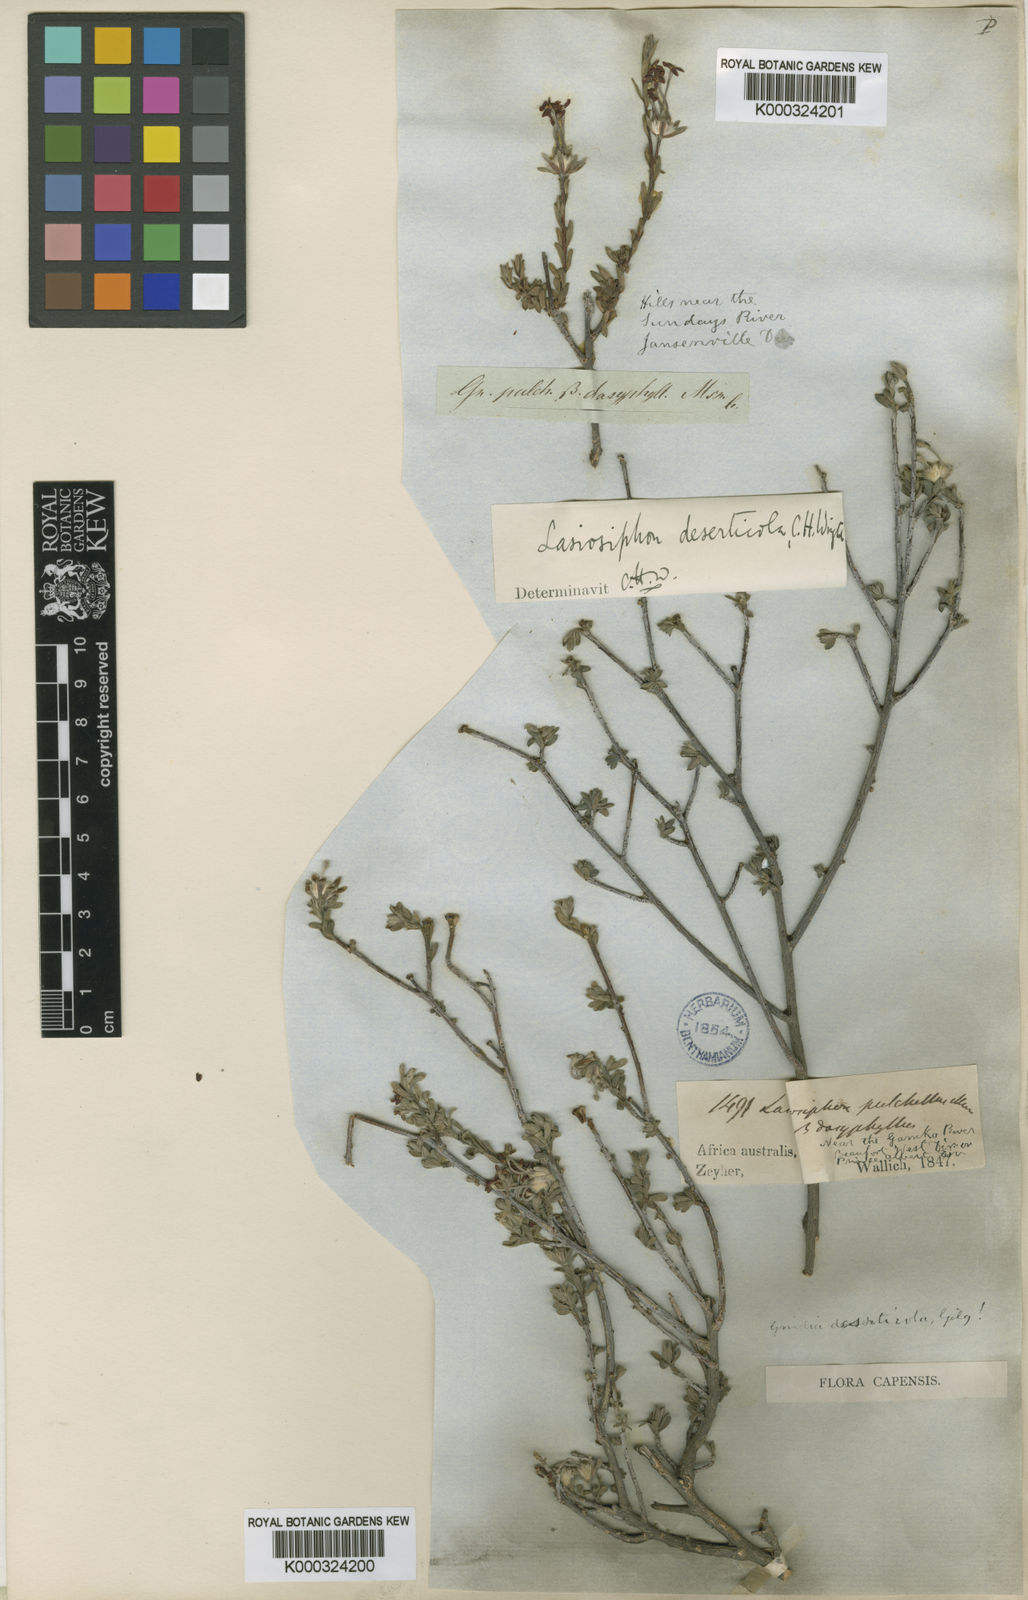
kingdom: Plantae
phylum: Tracheophyta
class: Magnoliopsida
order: Malvales
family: Thymelaeaceae
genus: Gnidia
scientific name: Gnidia deserticola
